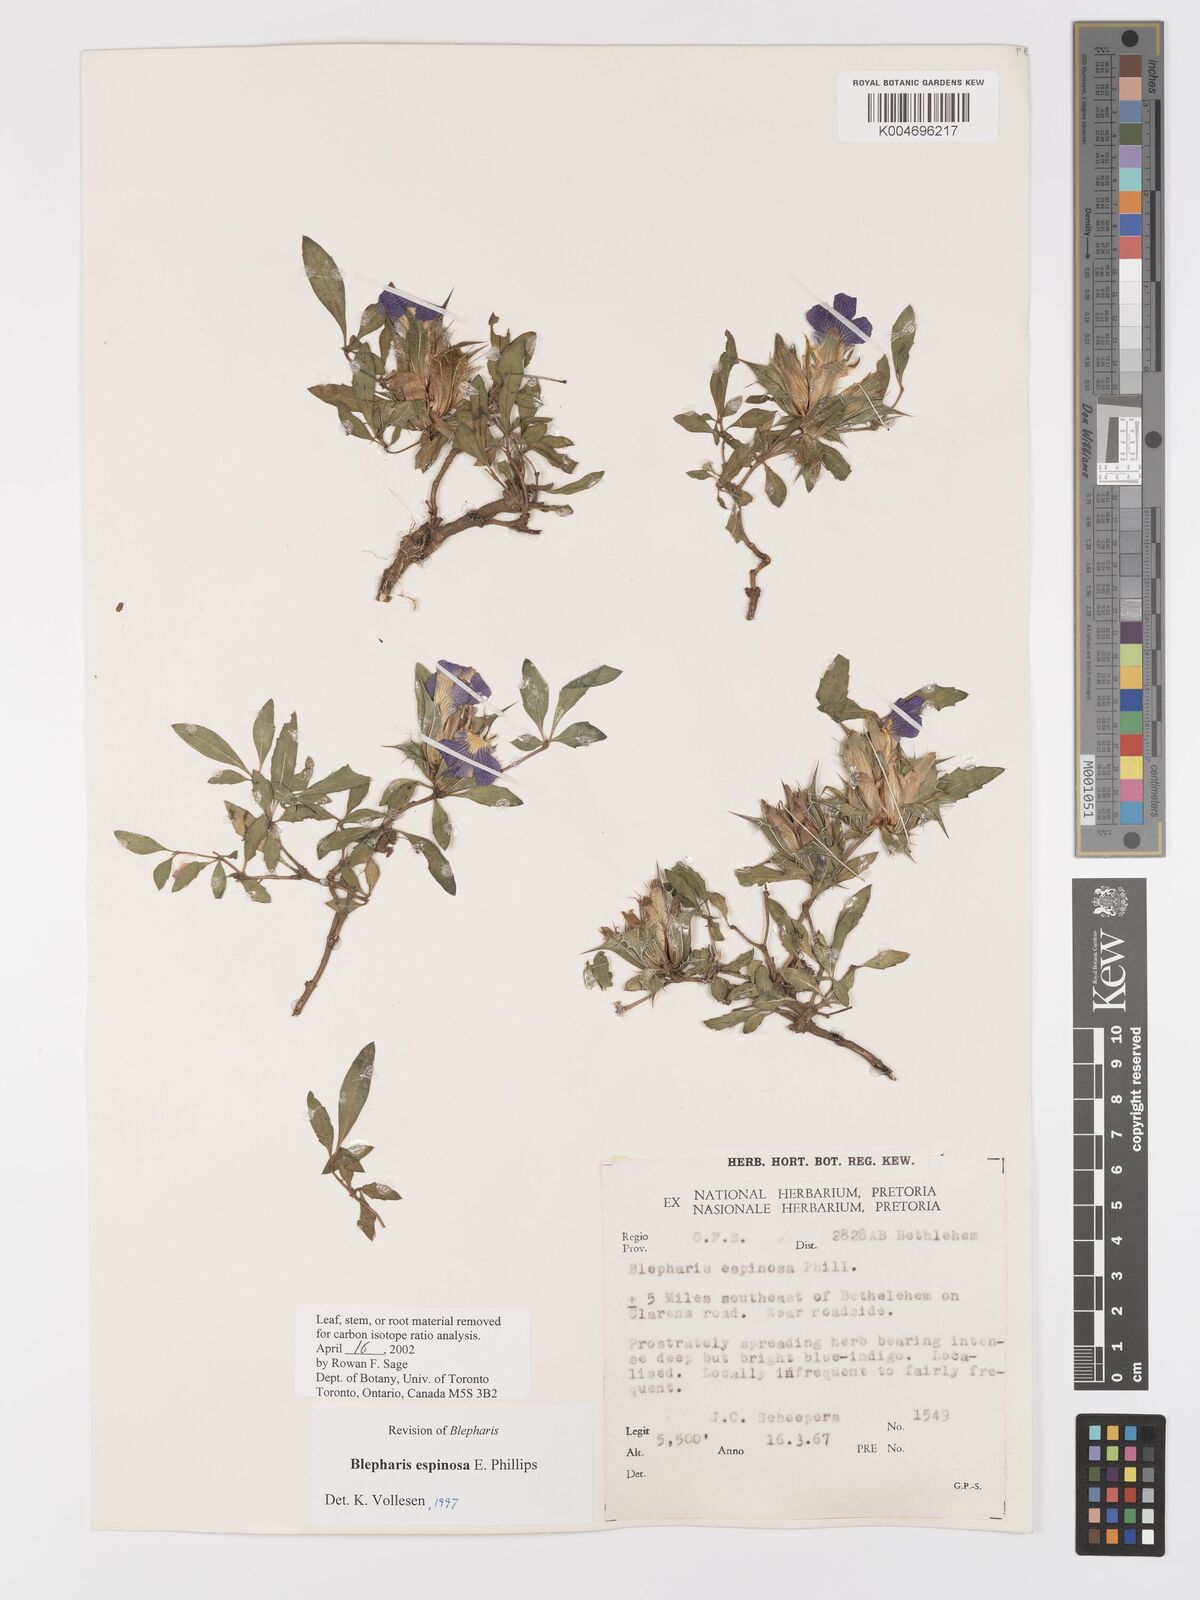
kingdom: Plantae
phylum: Tracheophyta
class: Magnoliopsida
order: Lamiales
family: Acanthaceae
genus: Blepharis
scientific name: Blepharis espinosa
